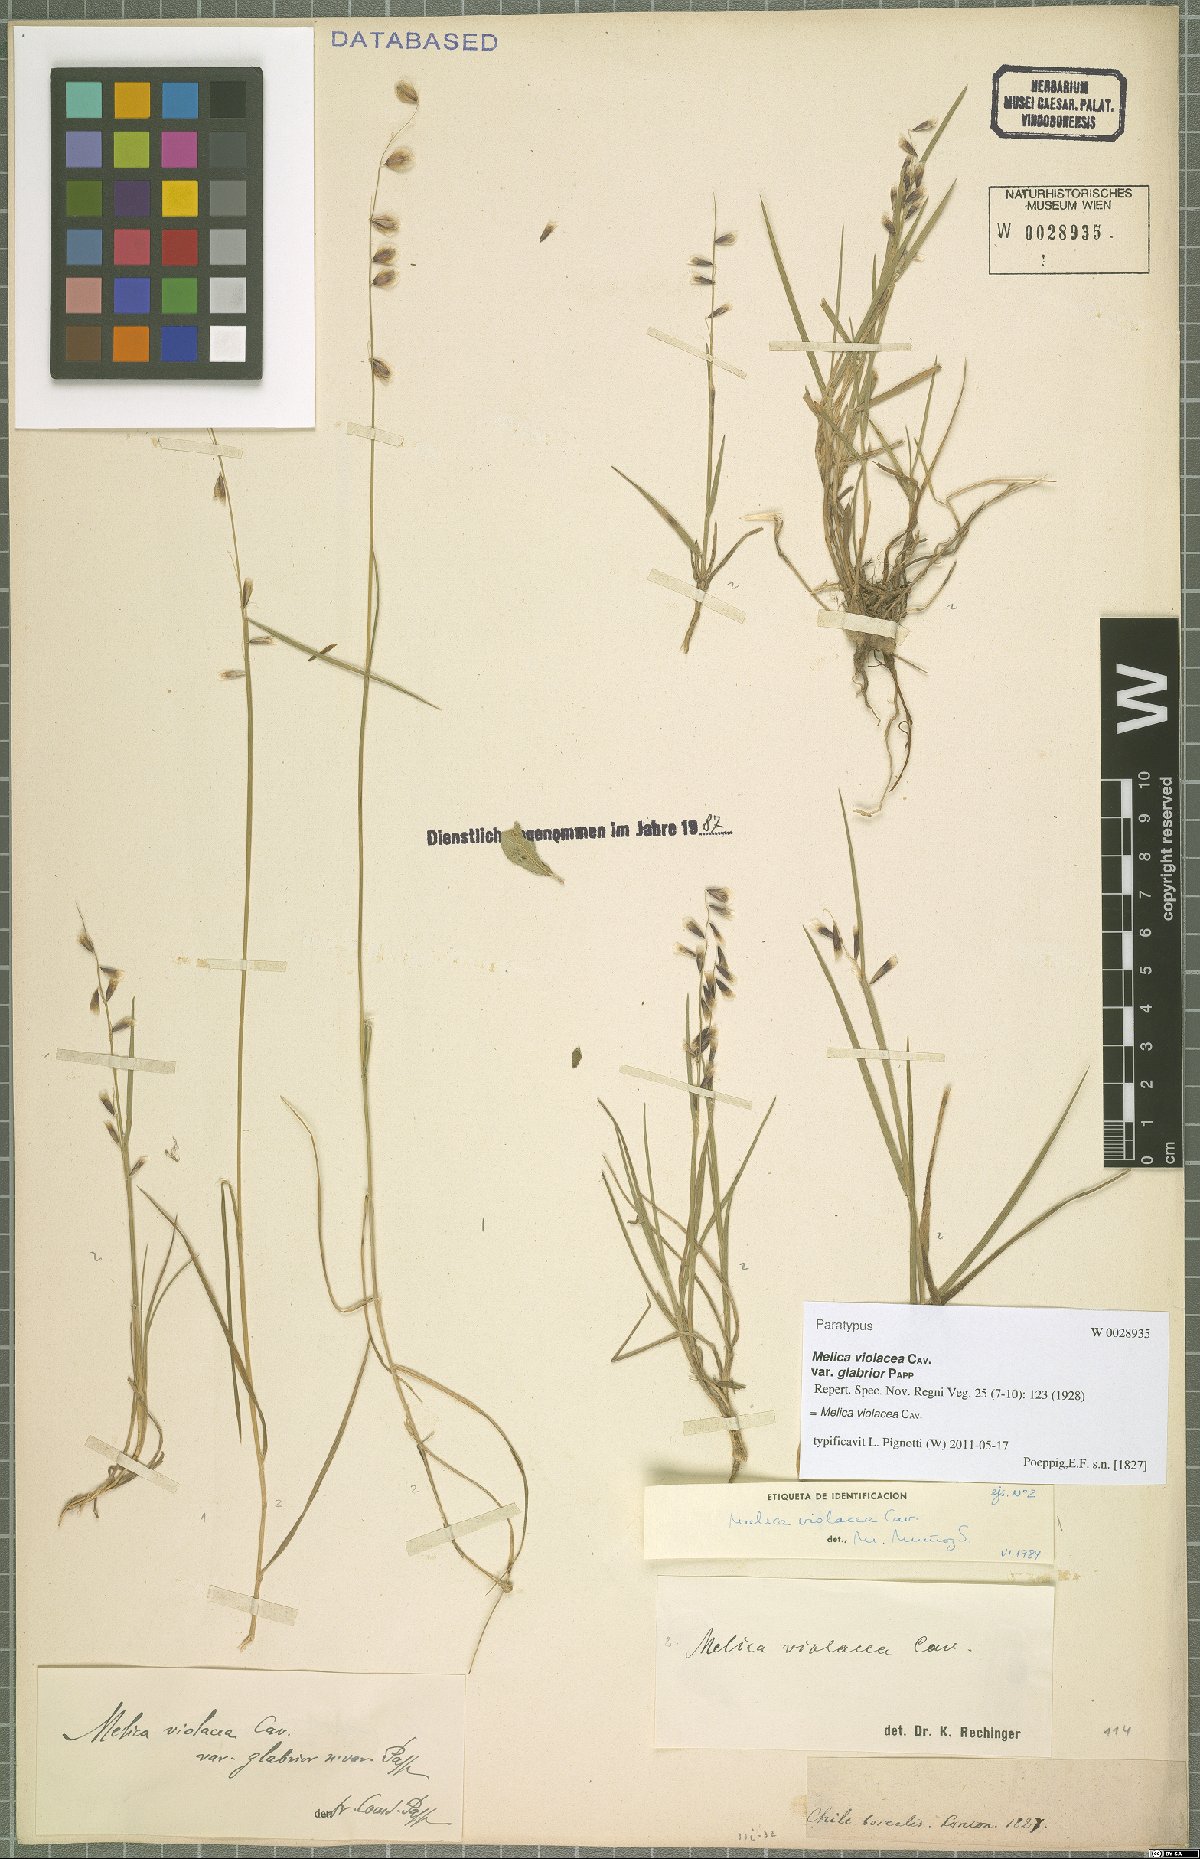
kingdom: Plantae
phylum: Tracheophyta
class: Liliopsida
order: Poales
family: Poaceae
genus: Melica
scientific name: Melica violacea
